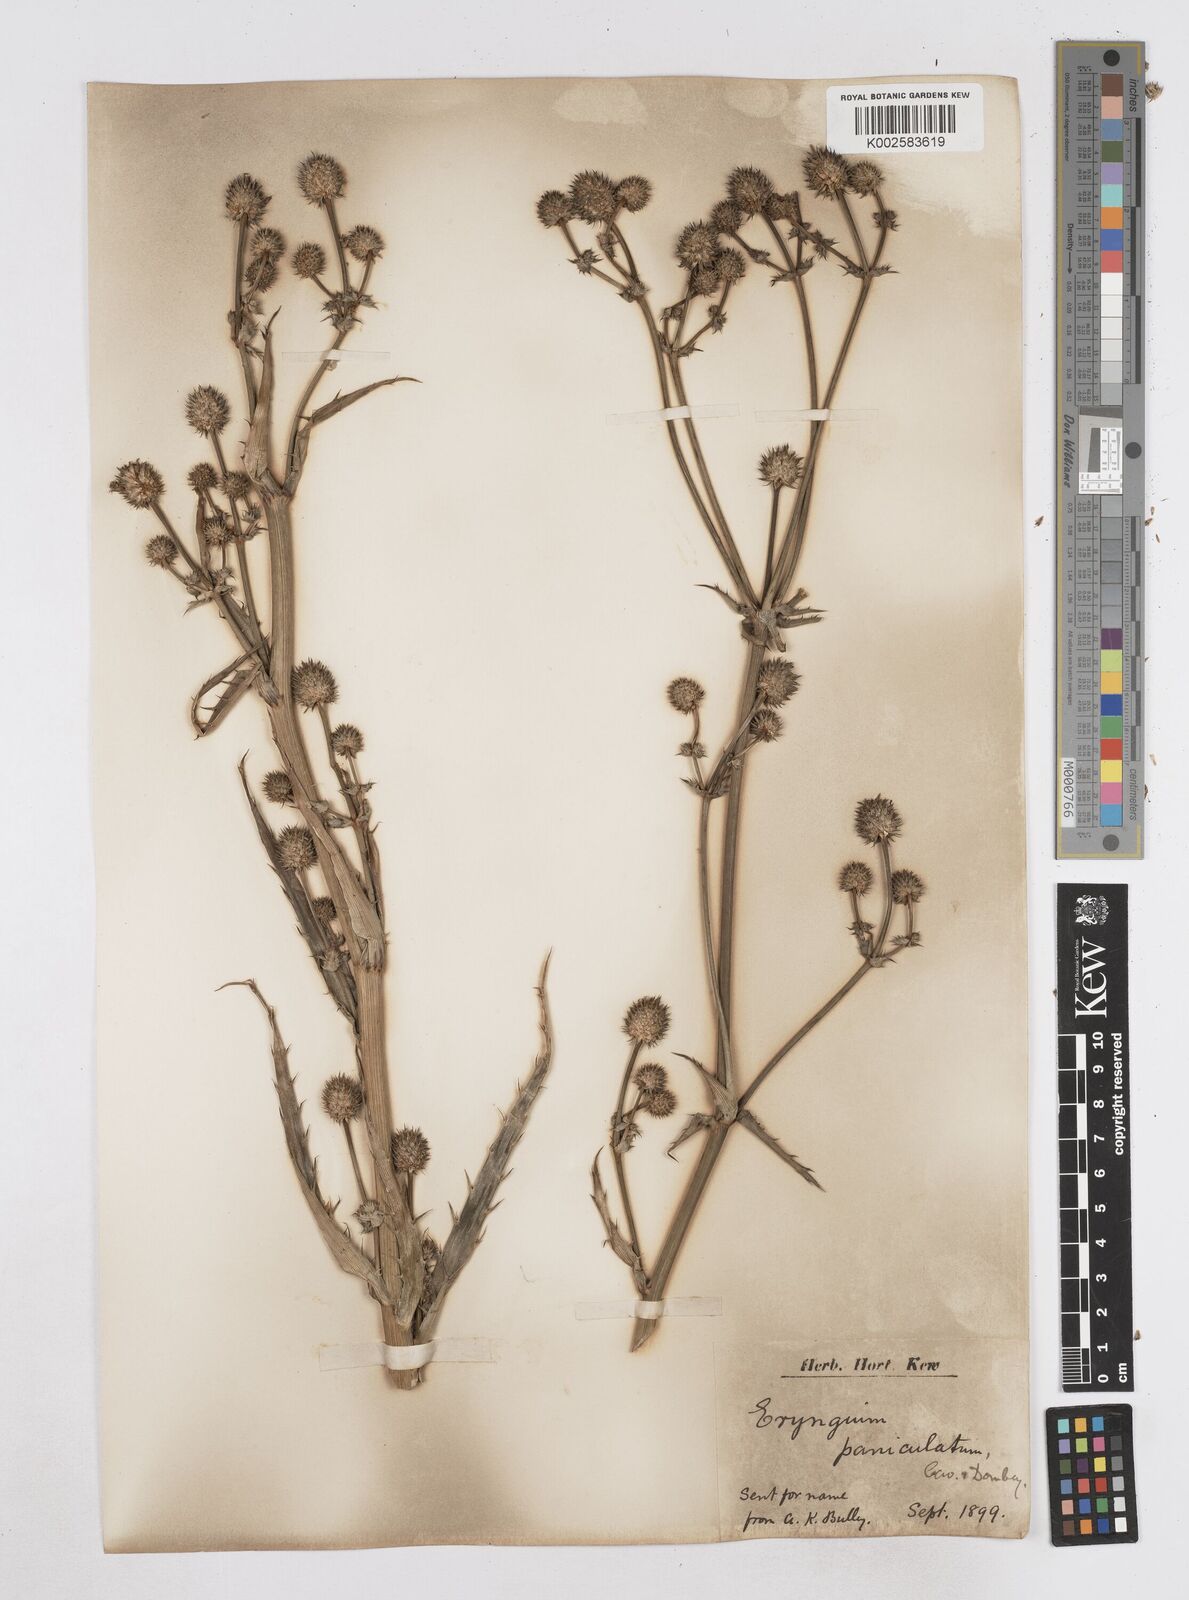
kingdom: Plantae
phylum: Tracheophyta
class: Magnoliopsida
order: Apiales
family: Apiaceae
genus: Eryngium
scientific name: Eryngium humboldtii
